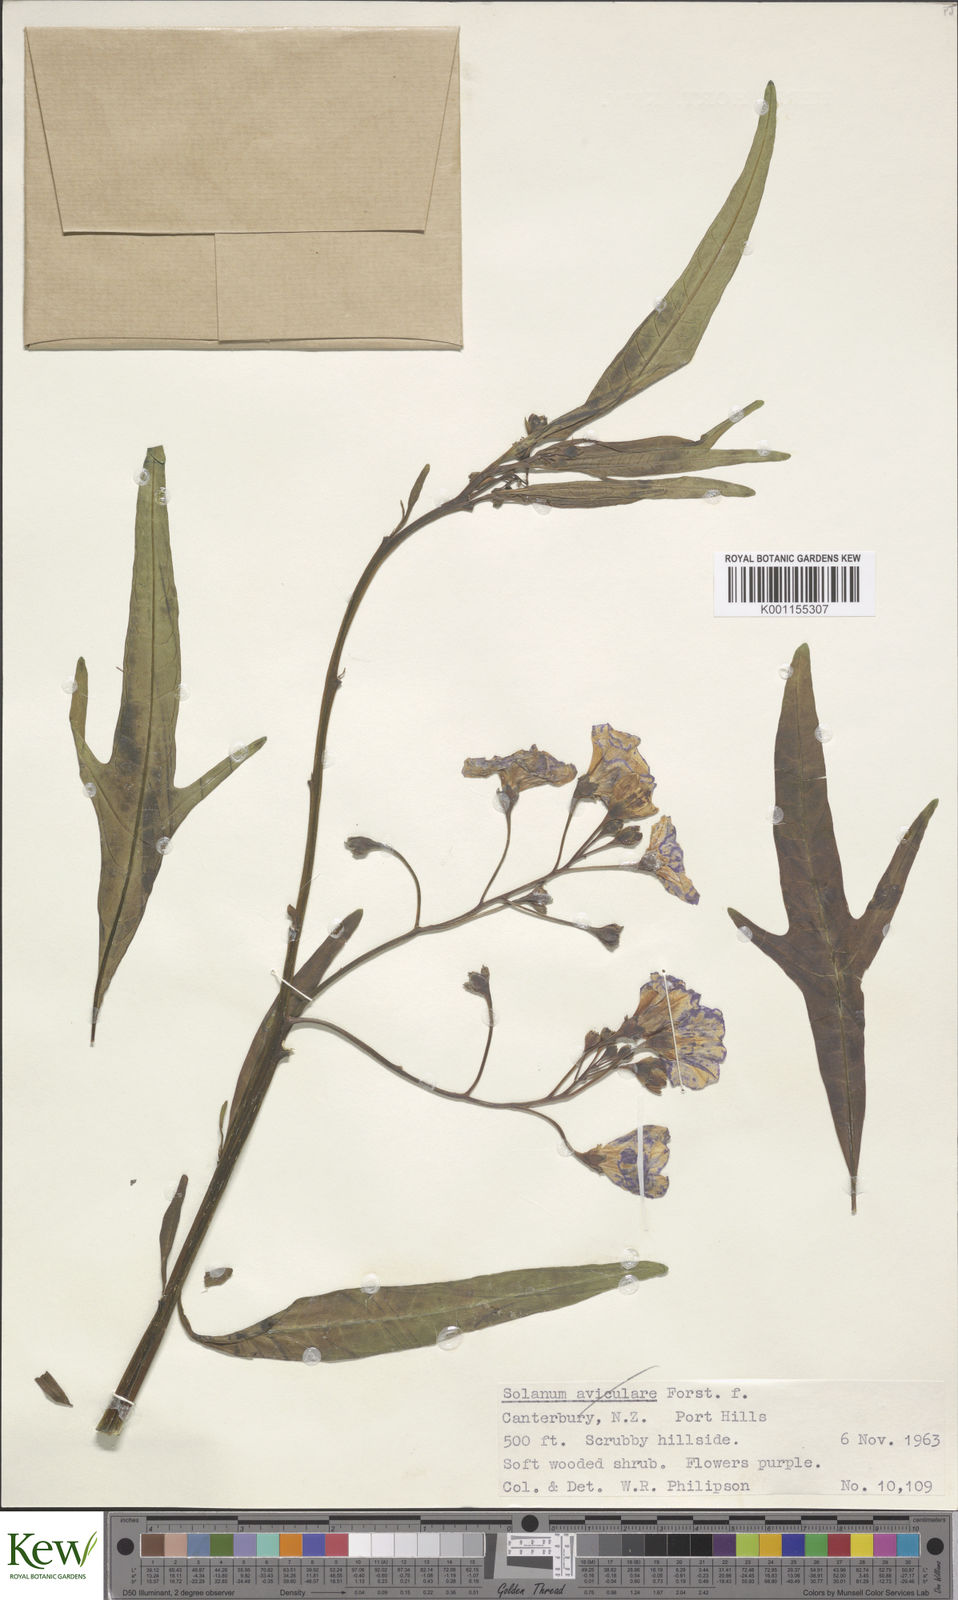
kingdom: Plantae
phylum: Tracheophyta
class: Magnoliopsida
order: Solanales
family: Solanaceae
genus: Solanum
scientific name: Solanum laciniatum
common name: Kangaroo-apple
